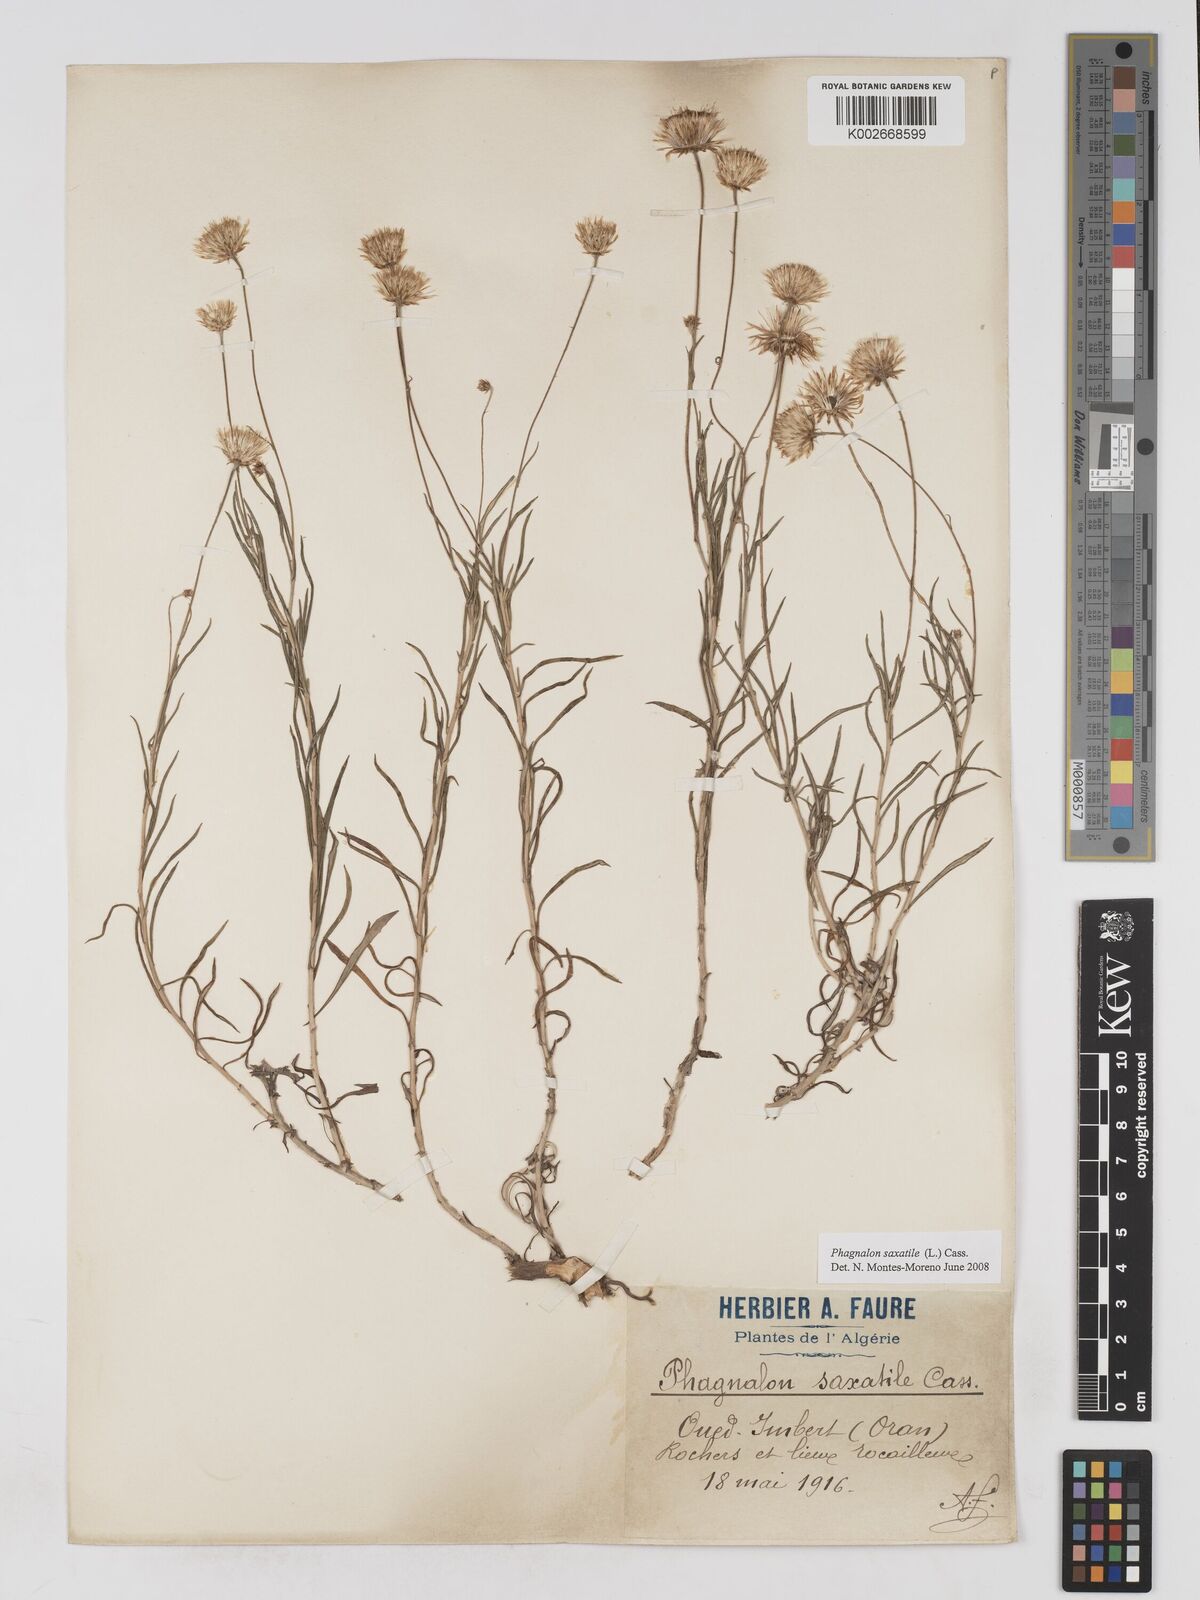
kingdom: Plantae
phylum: Tracheophyta
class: Magnoliopsida
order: Asterales
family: Asteraceae
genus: Phagnalon
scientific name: Phagnalon saxatile
